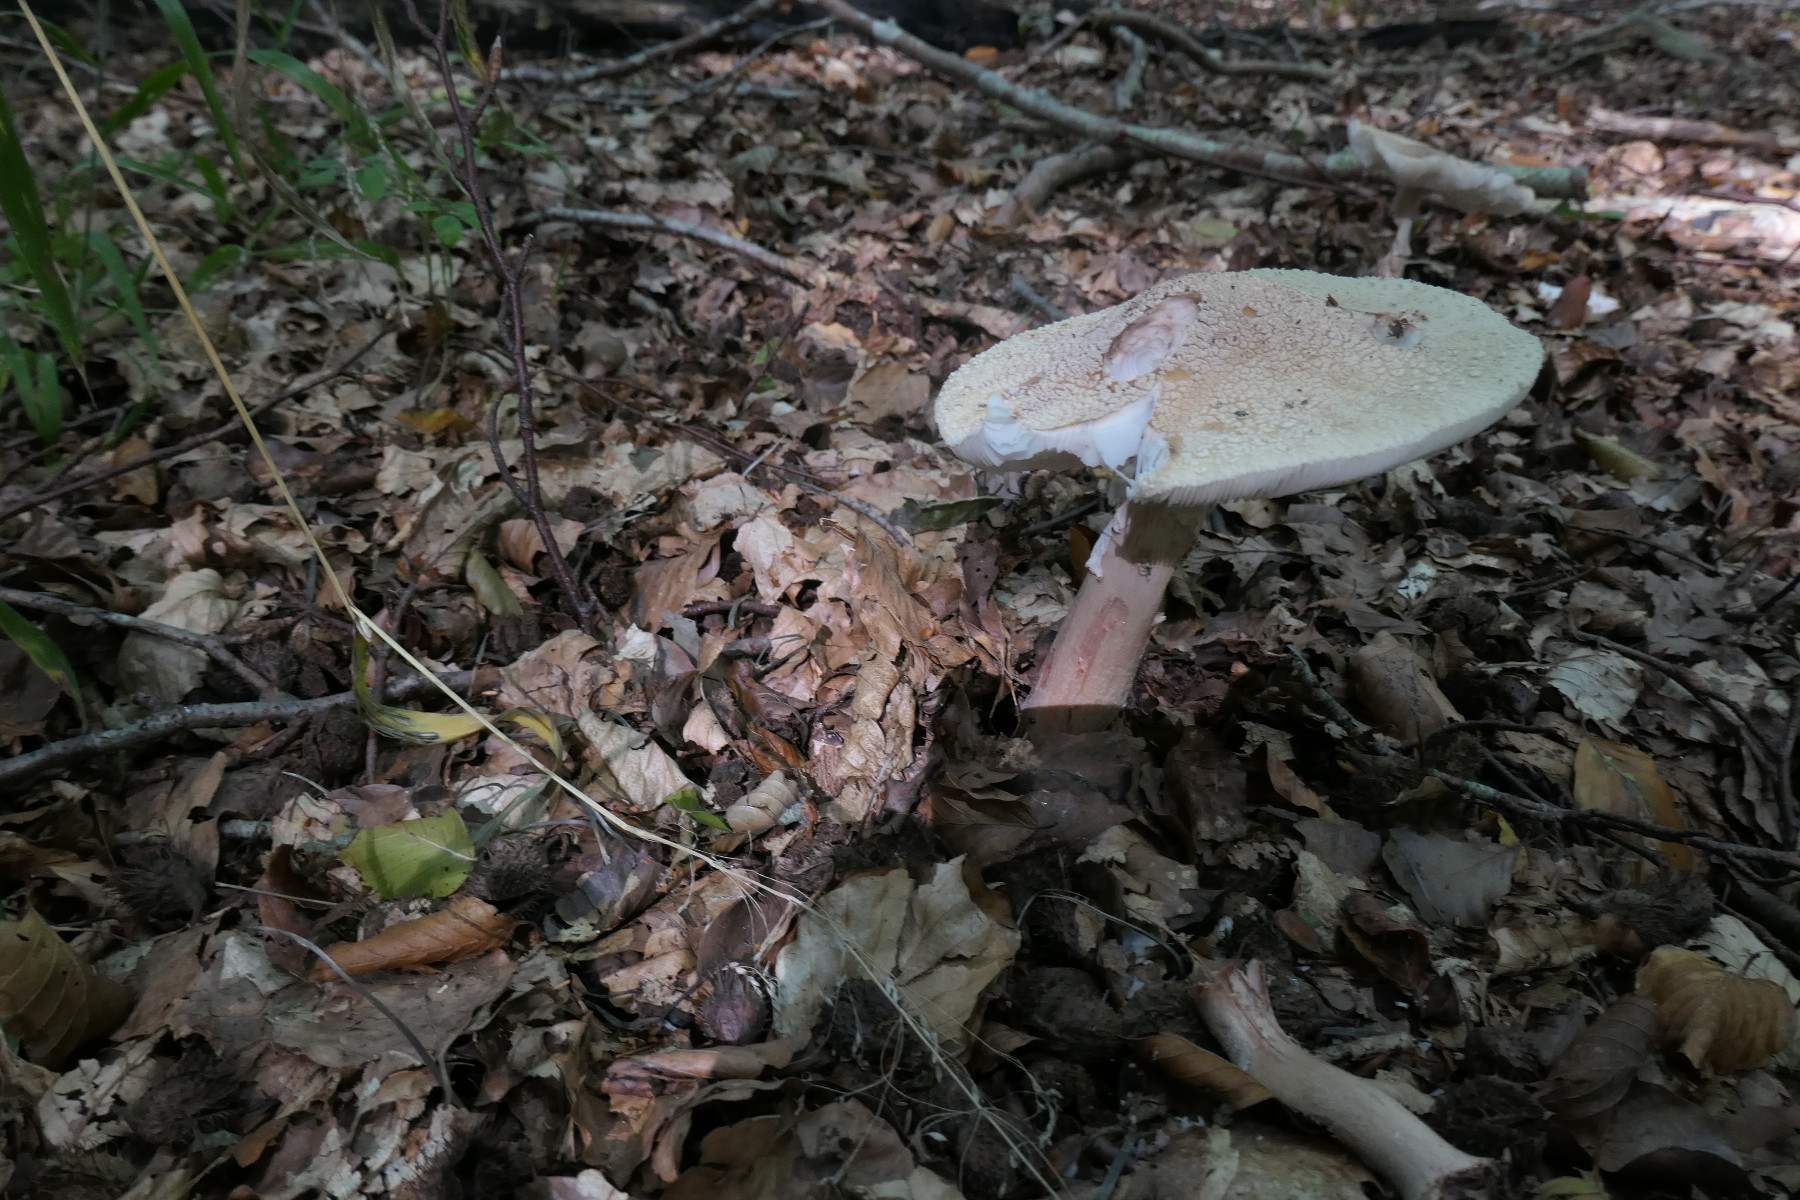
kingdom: Fungi
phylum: Basidiomycota
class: Agaricomycetes
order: Agaricales
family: Amanitaceae
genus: Amanita
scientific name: Amanita rubescens
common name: rødmende fluesvamp
